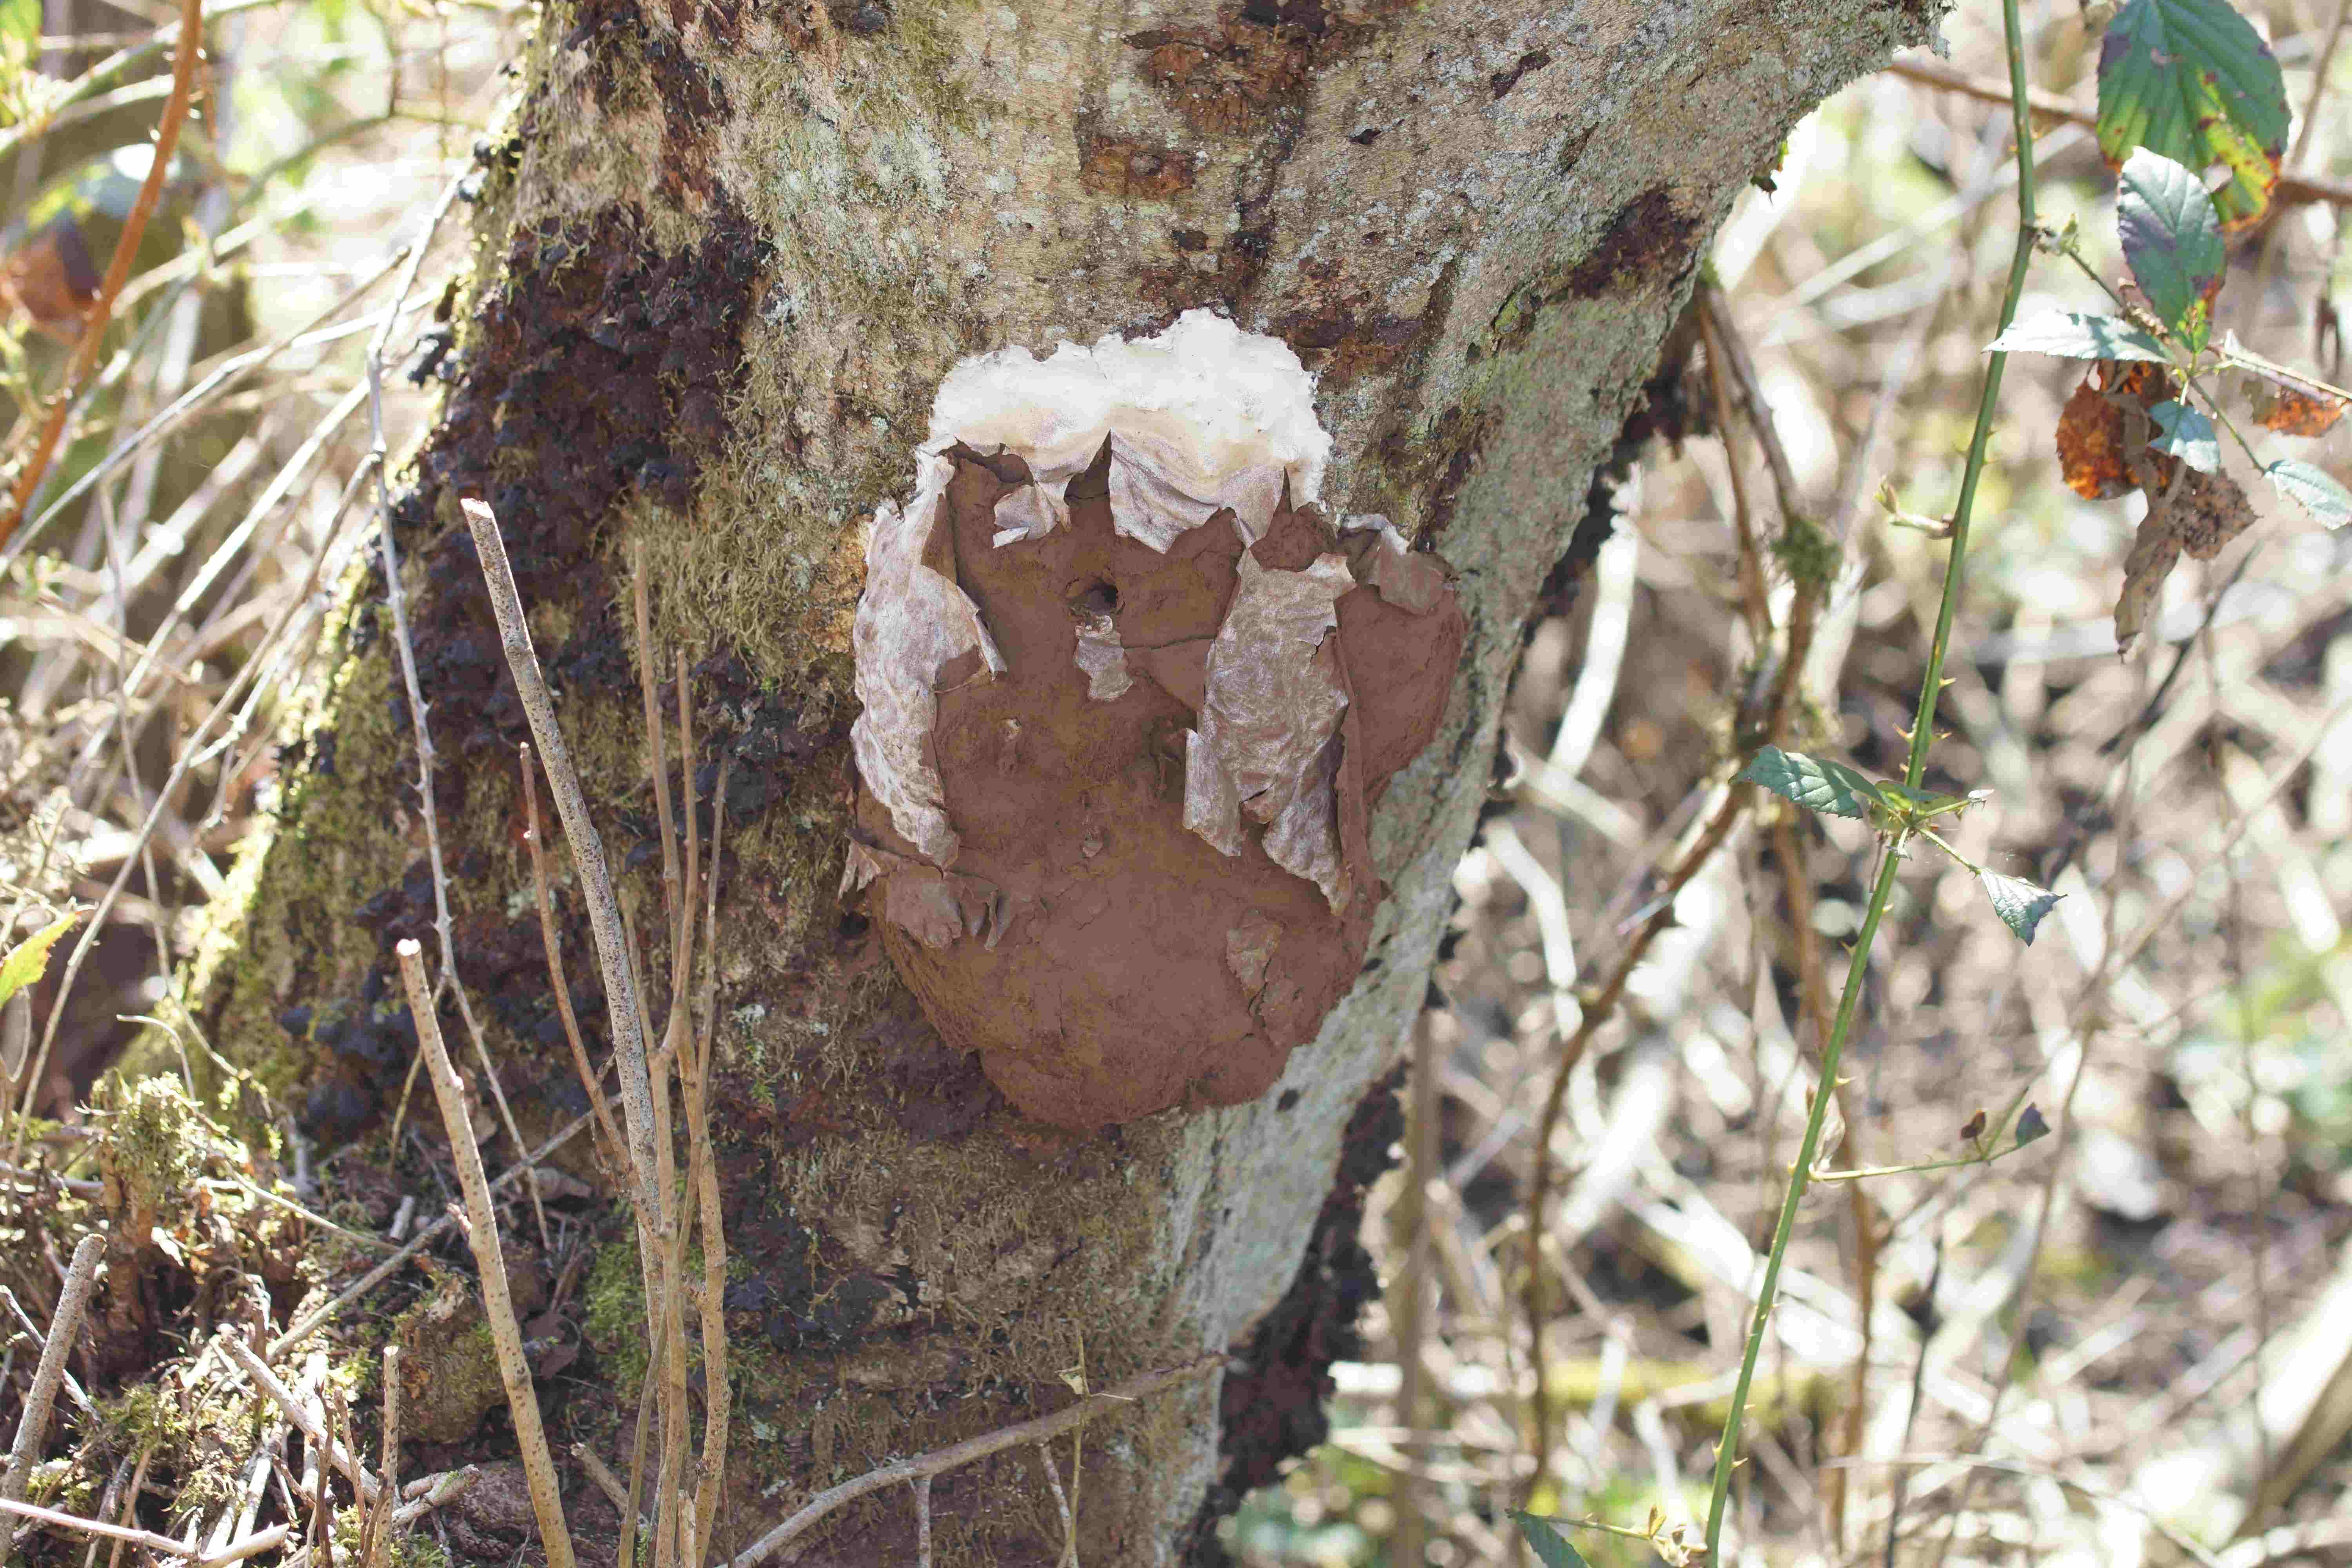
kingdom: Protozoa
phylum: Mycetozoa
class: Myxomycetes
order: Cribrariales
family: Tubiferaceae
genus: Reticularia
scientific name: Reticularia lycoperdon
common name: skinnende støvpude
